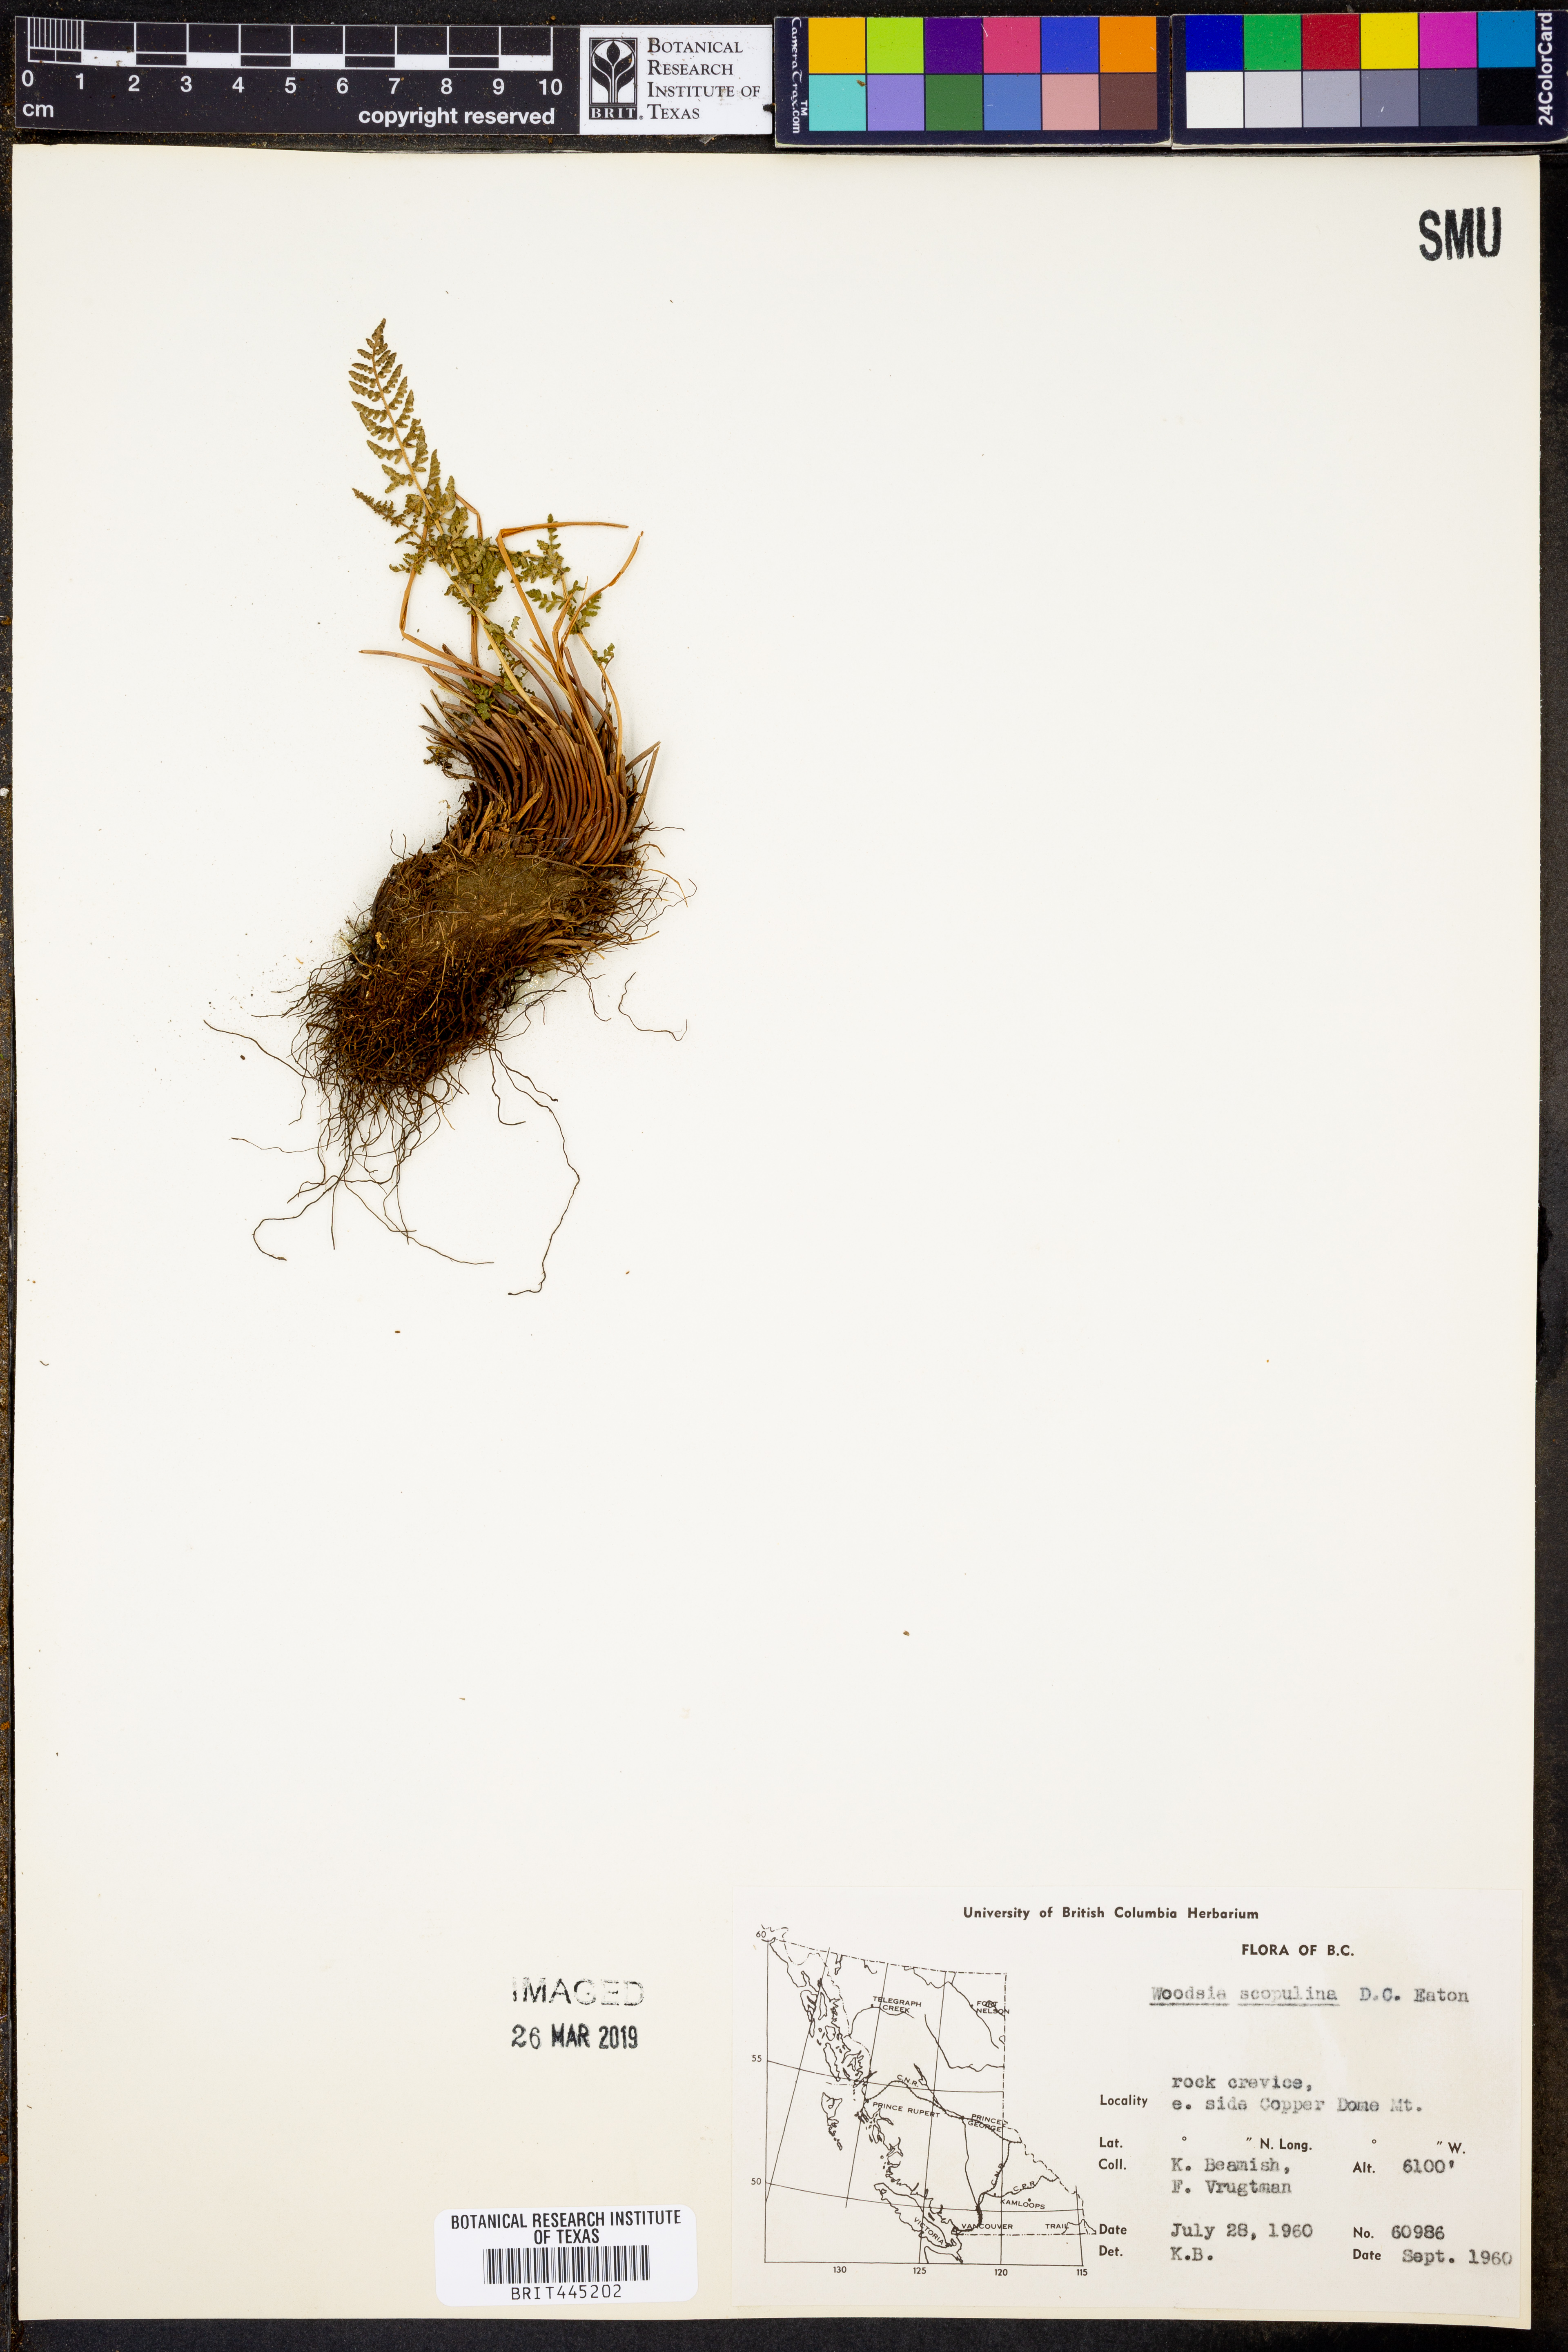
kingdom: Plantae
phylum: Tracheophyta
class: Polypodiopsida
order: Polypodiales
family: Woodsiaceae
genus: Physematium
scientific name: Physematium scopulinum
